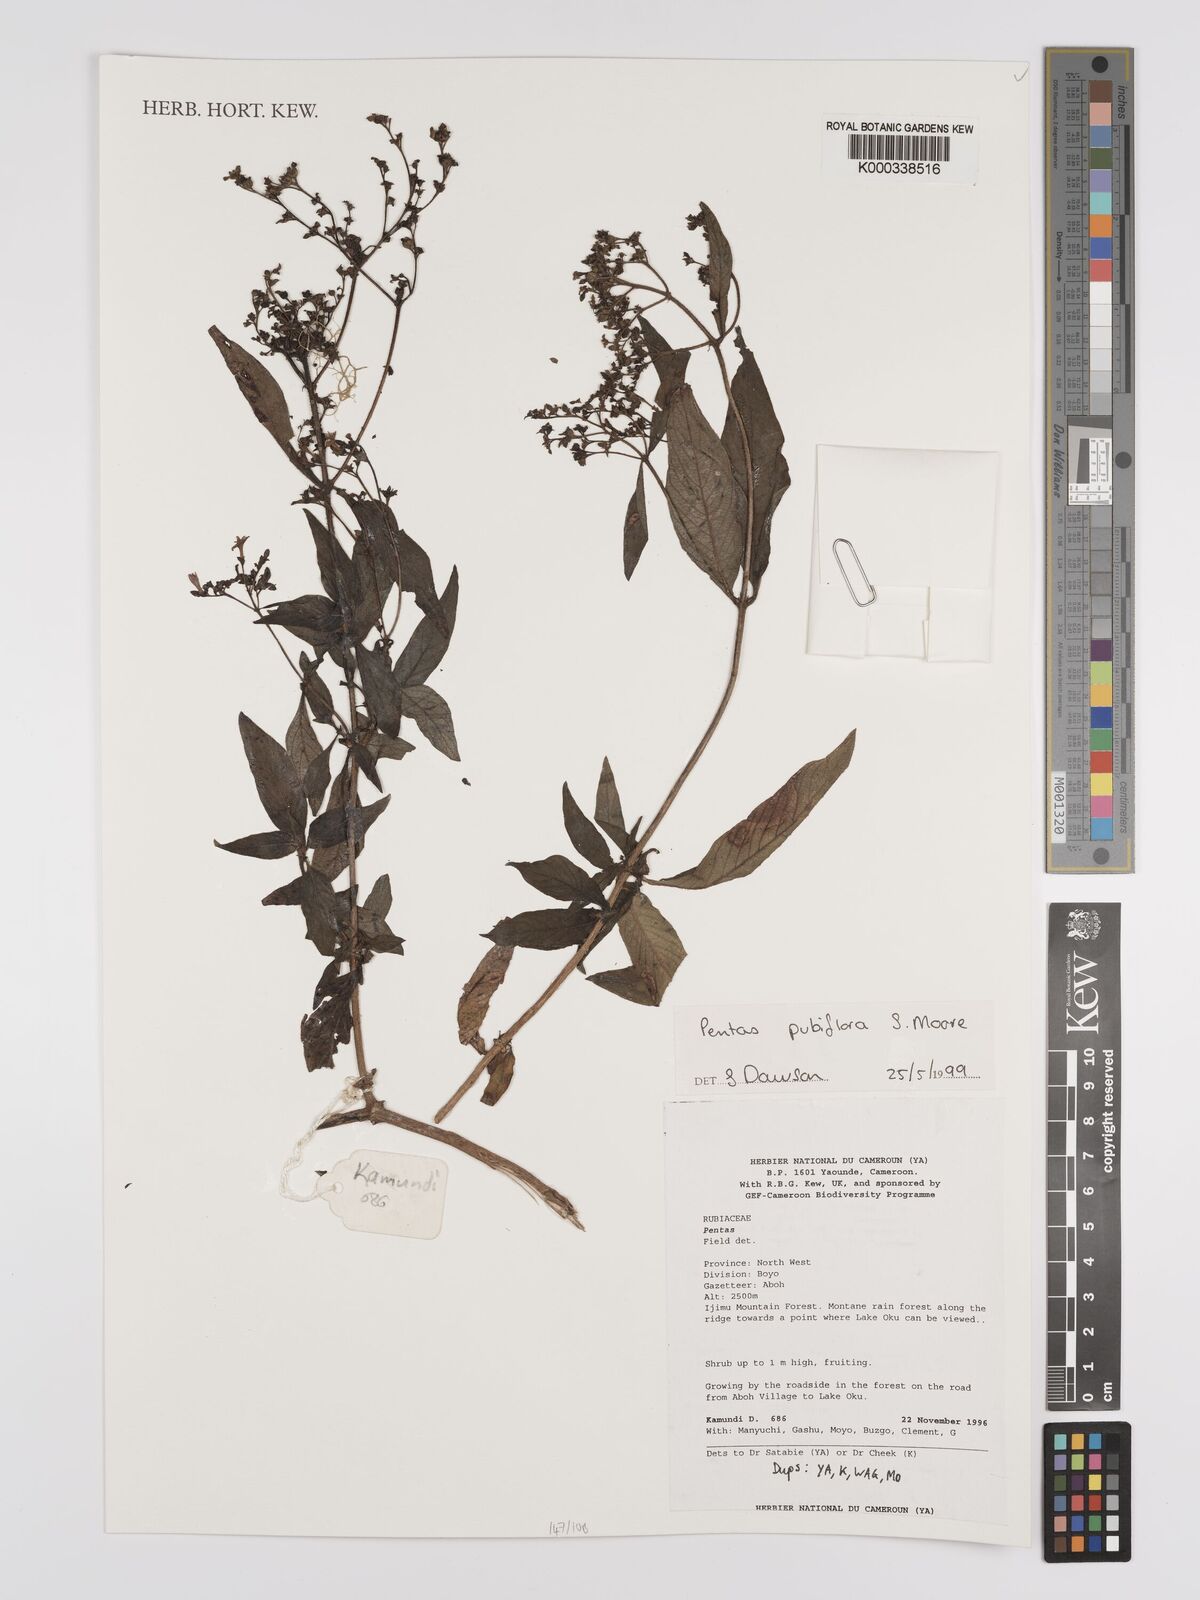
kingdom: Plantae
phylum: Tracheophyta
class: Magnoliopsida
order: Gentianales
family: Rubiaceae
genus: Pentas
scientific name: Pentas pubiflora
